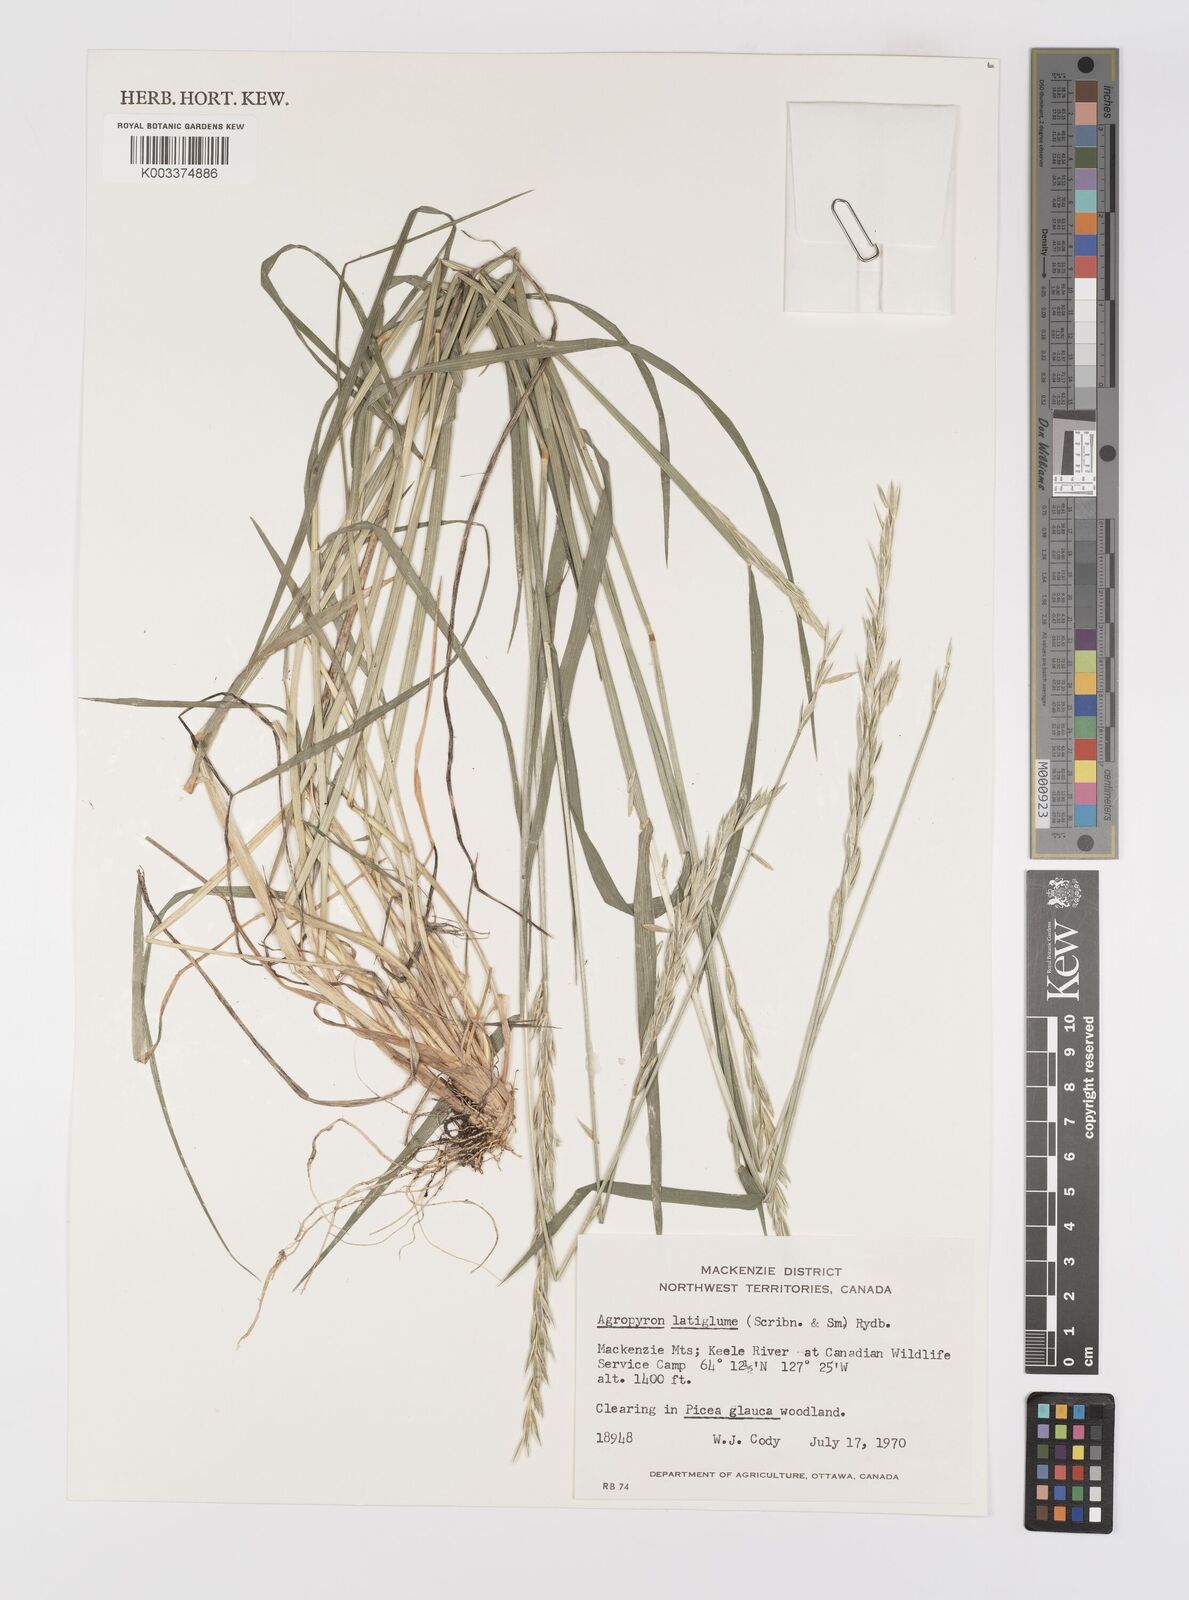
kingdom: Plantae
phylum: Tracheophyta
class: Liliopsida
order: Poales
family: Poaceae
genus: Elymus
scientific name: Elymus violaceus
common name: Arctic wheatgrass
